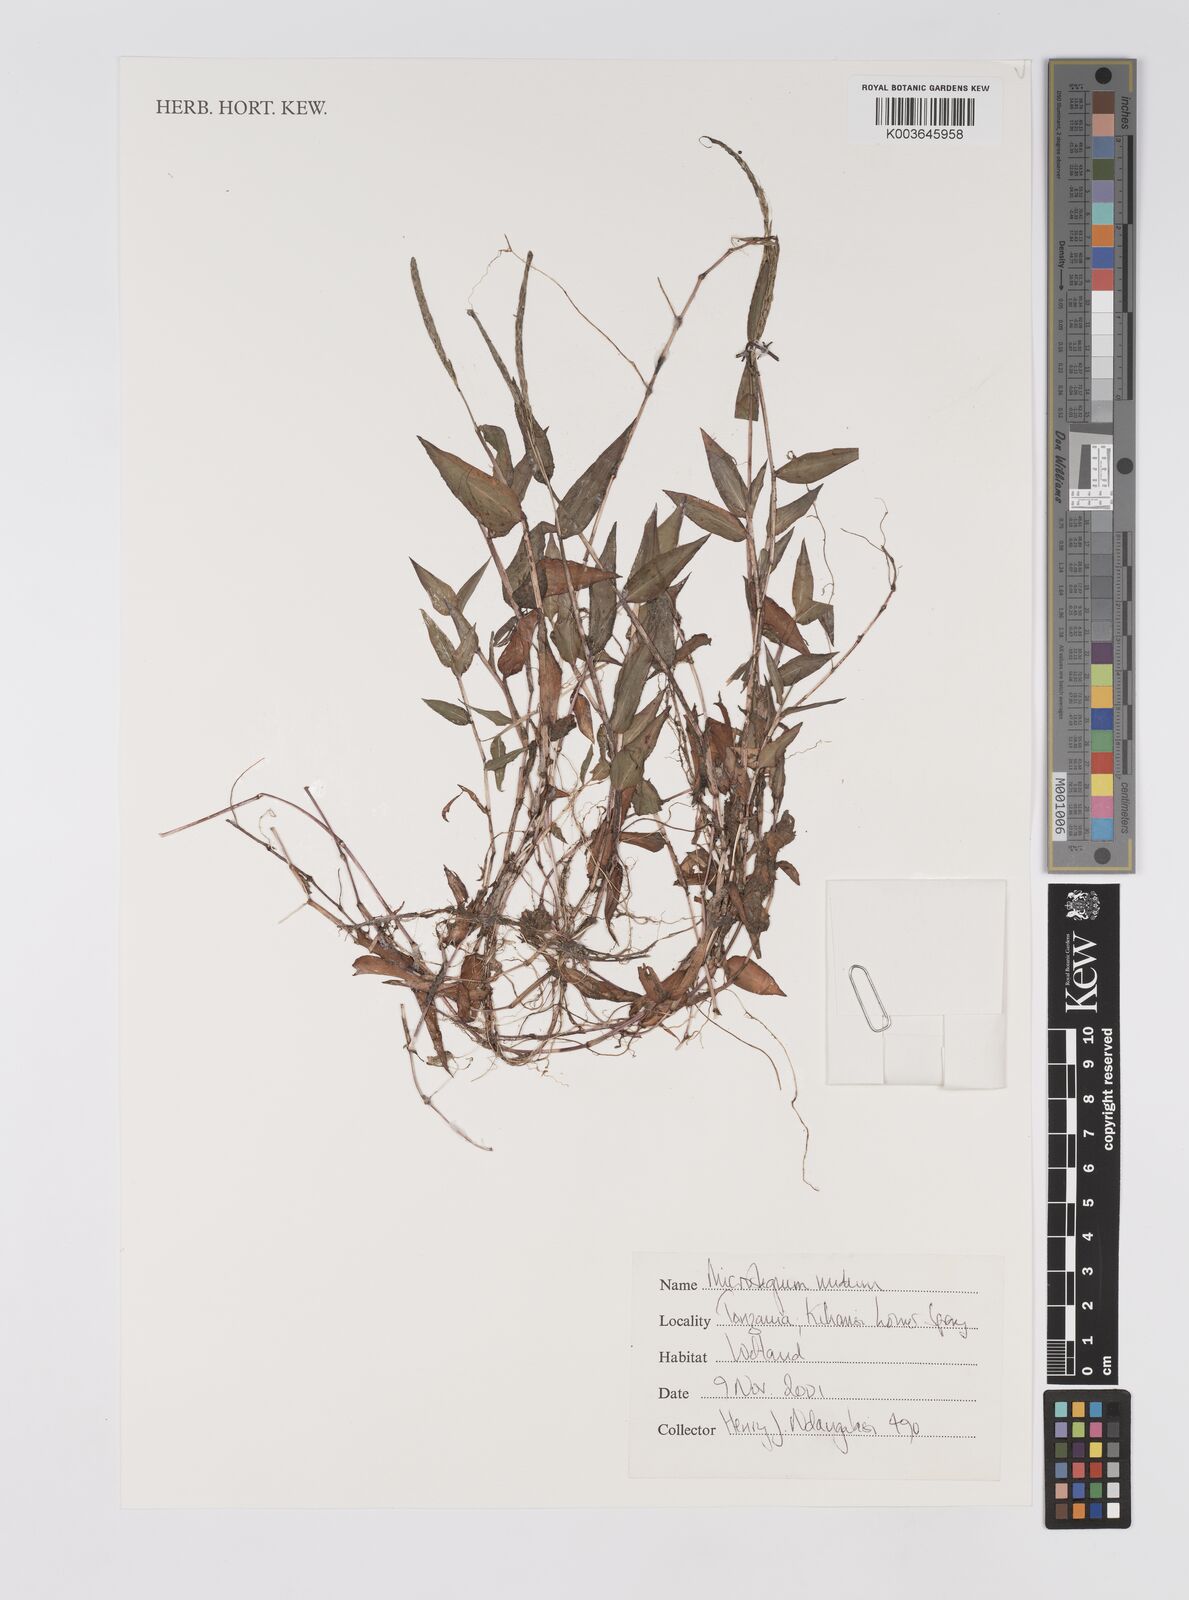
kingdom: Plantae
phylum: Tracheophyta
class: Liliopsida
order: Poales
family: Poaceae
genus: Microstegium
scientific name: Microstegium nudum
